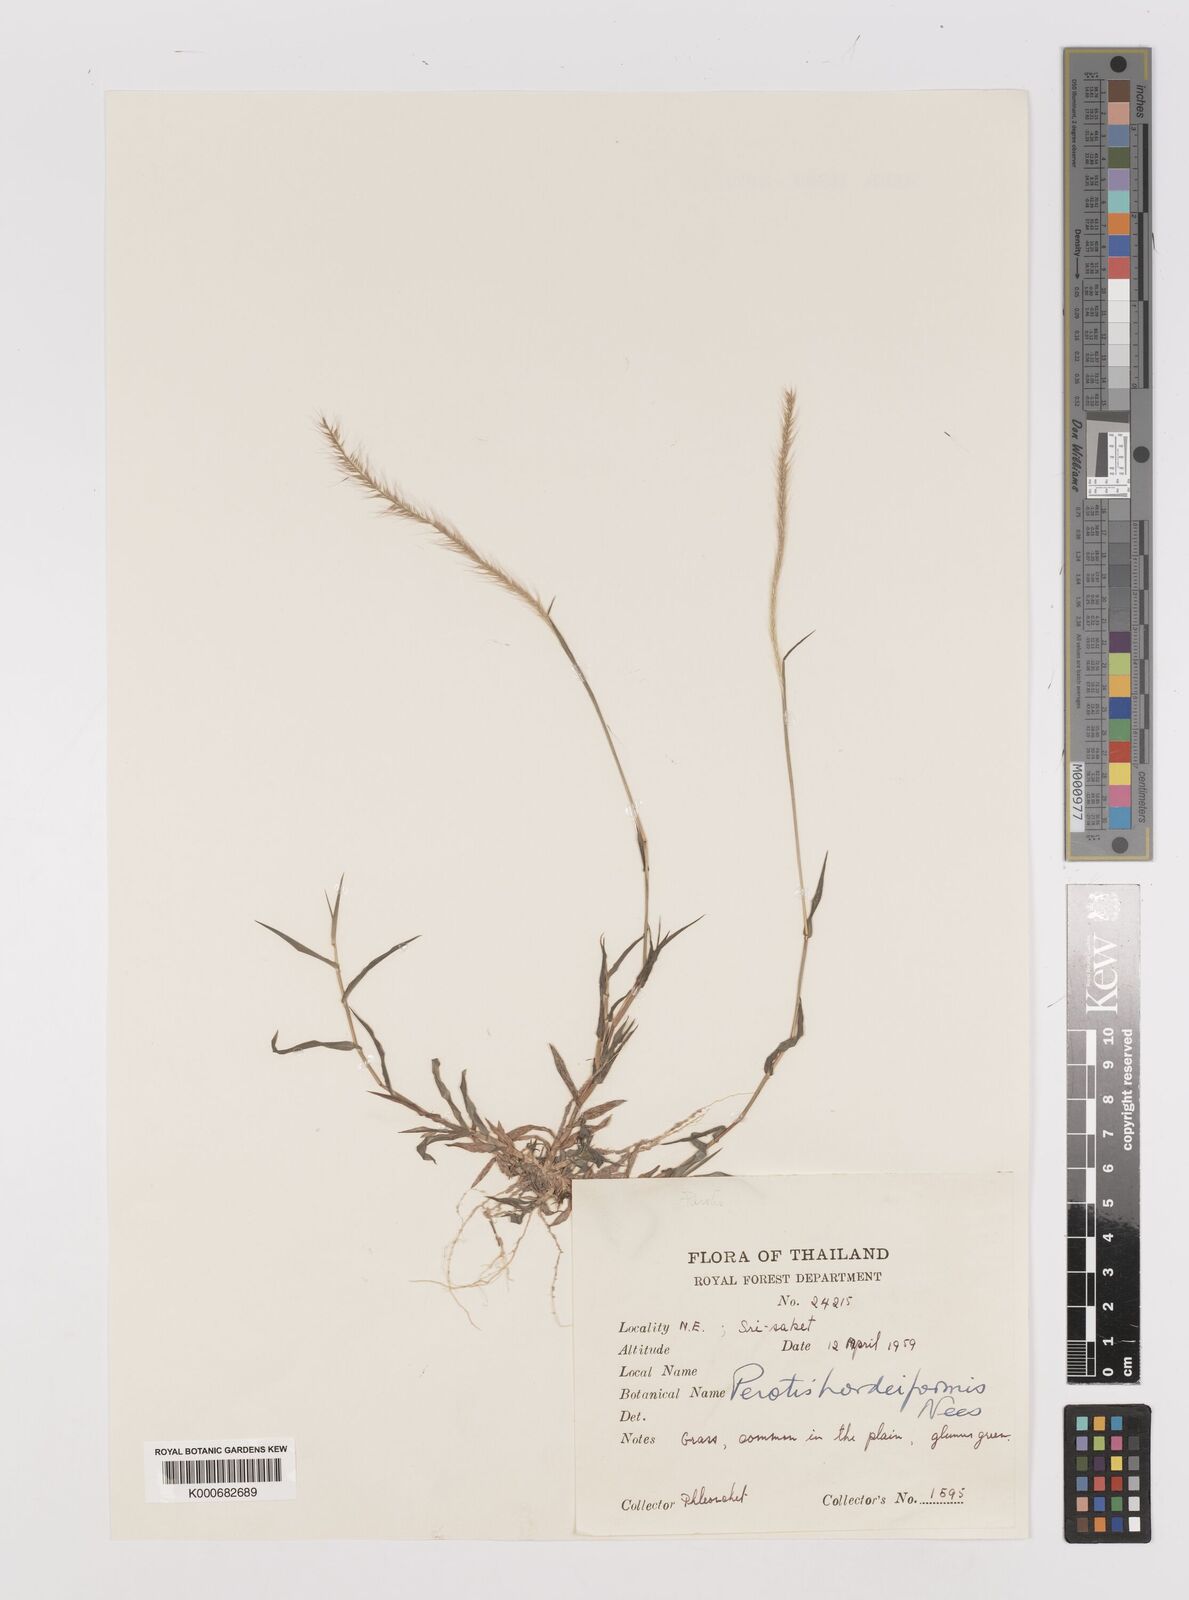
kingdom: Plantae
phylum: Tracheophyta
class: Liliopsida
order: Poales
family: Poaceae
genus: Perotis
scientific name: Perotis hordeiformis
